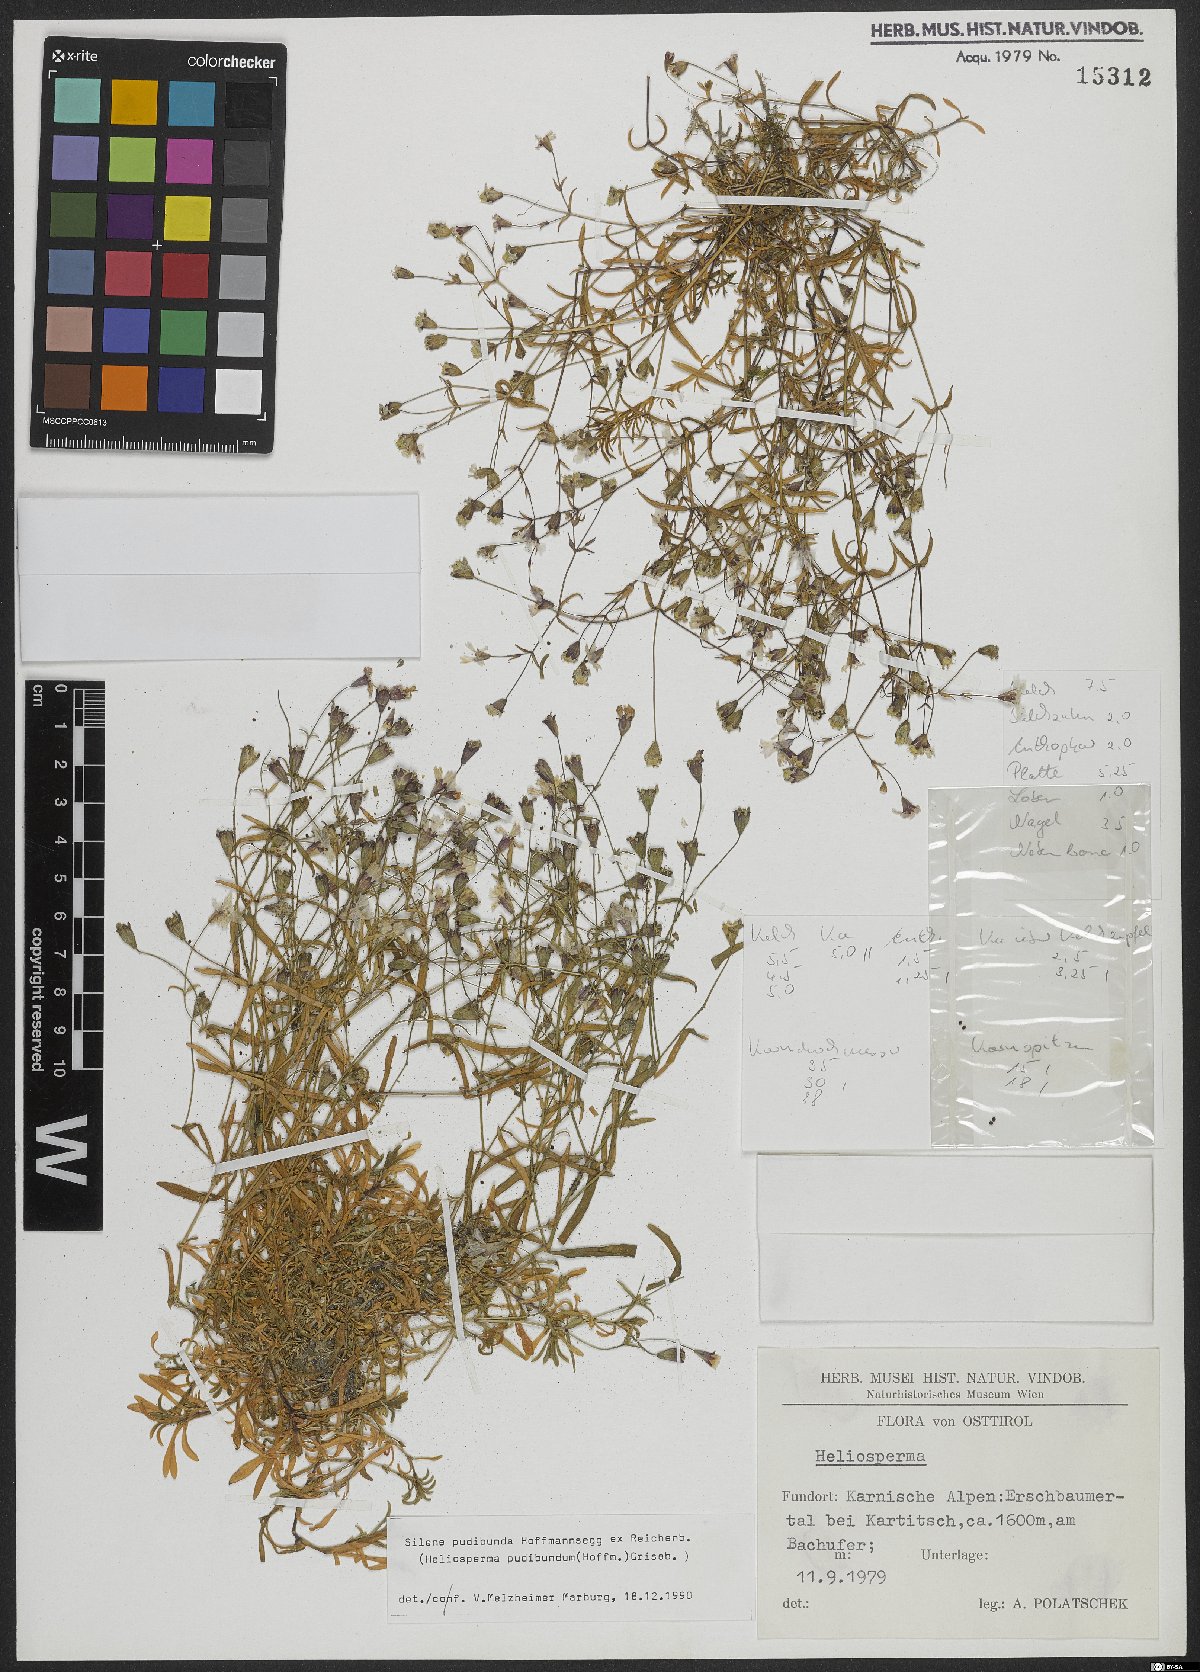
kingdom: Plantae
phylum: Tracheophyta
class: Magnoliopsida
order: Caryophyllales
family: Caryophyllaceae
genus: Heliosperma
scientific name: Heliosperma pudibundum
